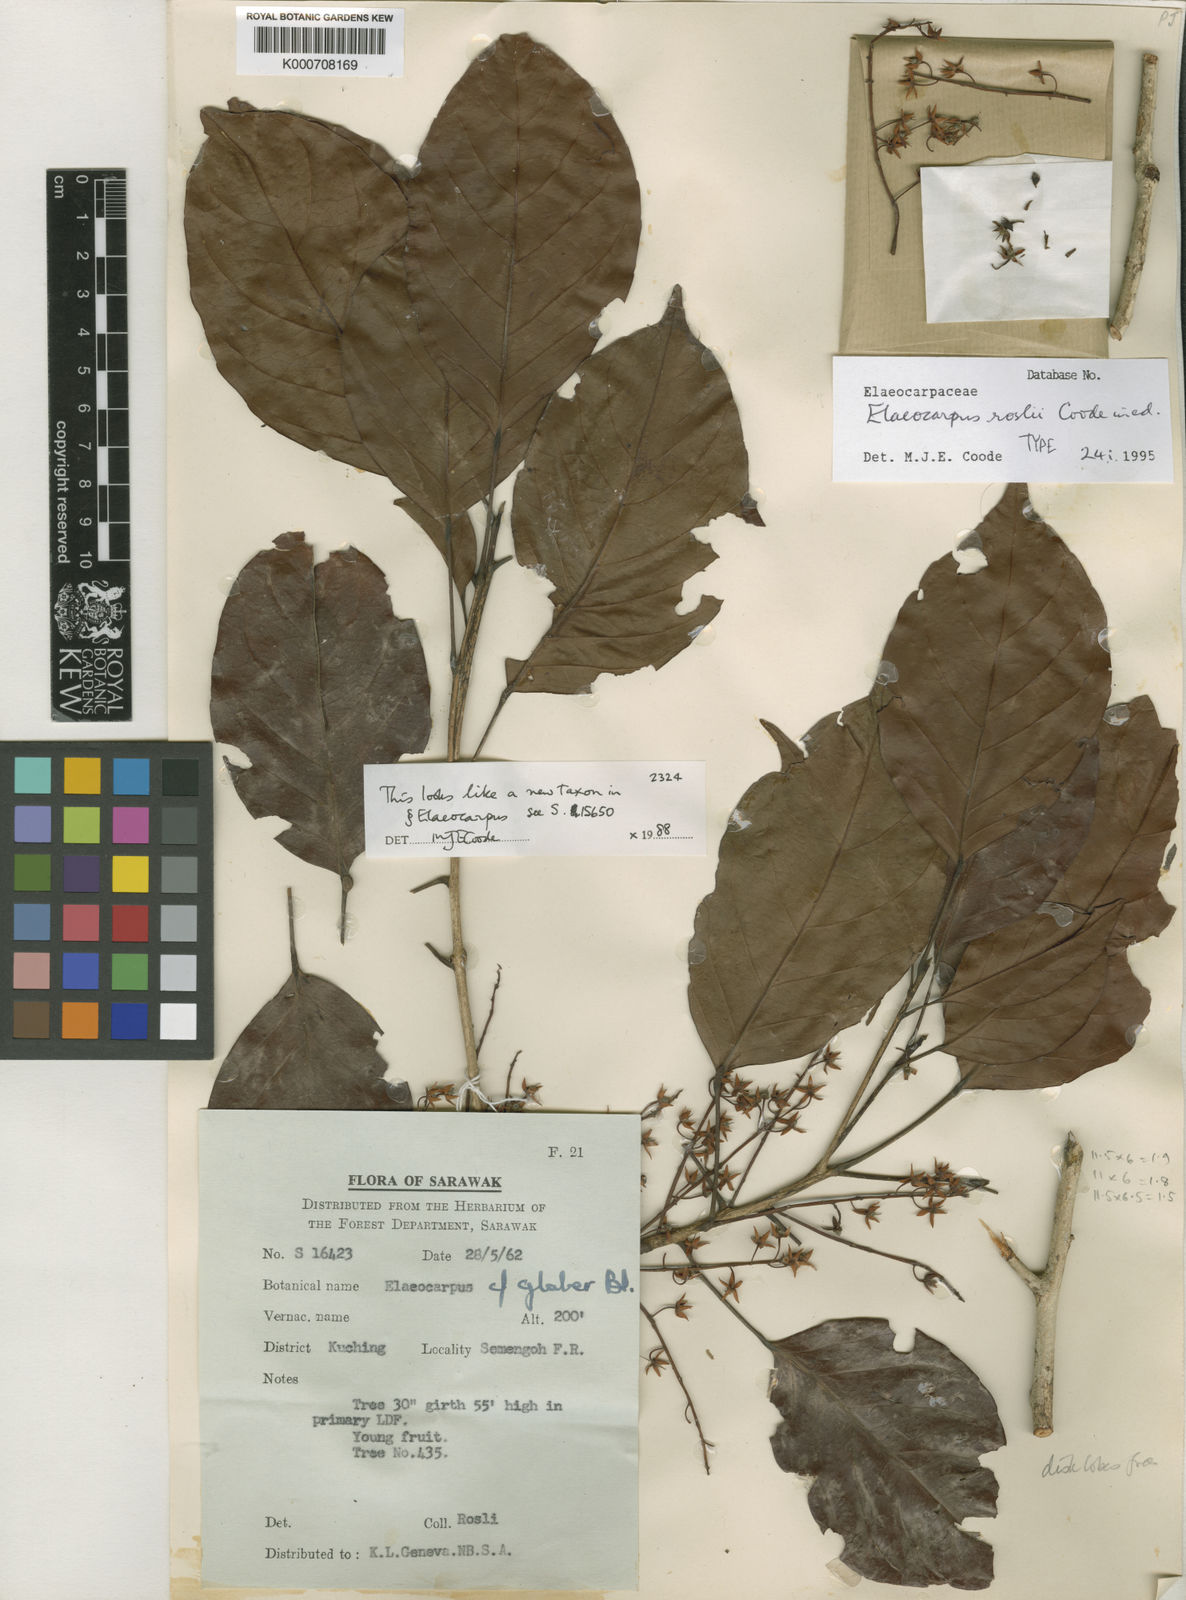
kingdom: Plantae
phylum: Tracheophyta
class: Magnoliopsida
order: Oxalidales
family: Elaeocarpaceae
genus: Elaeocarpus
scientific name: Elaeocarpus roslii
